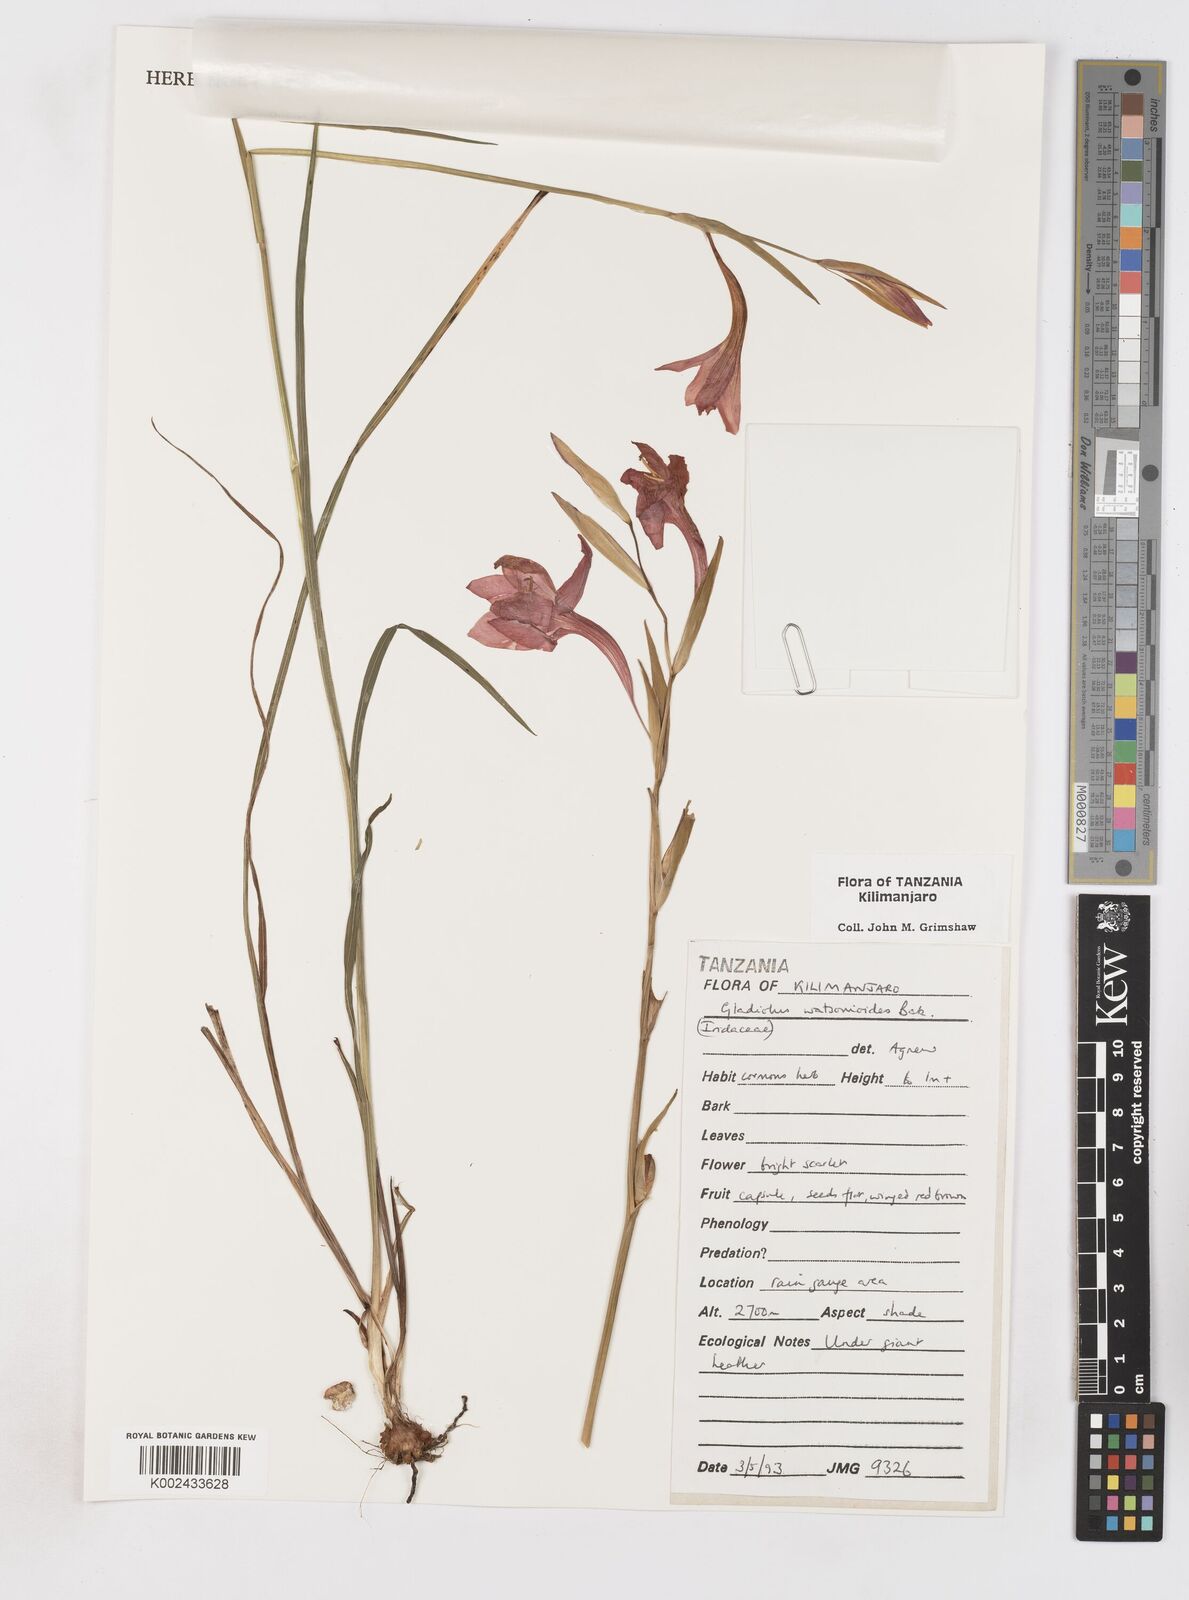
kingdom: Plantae
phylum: Tracheophyta
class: Liliopsida
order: Asparagales
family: Iridaceae
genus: Gladiolus
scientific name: Gladiolus watsonioides
